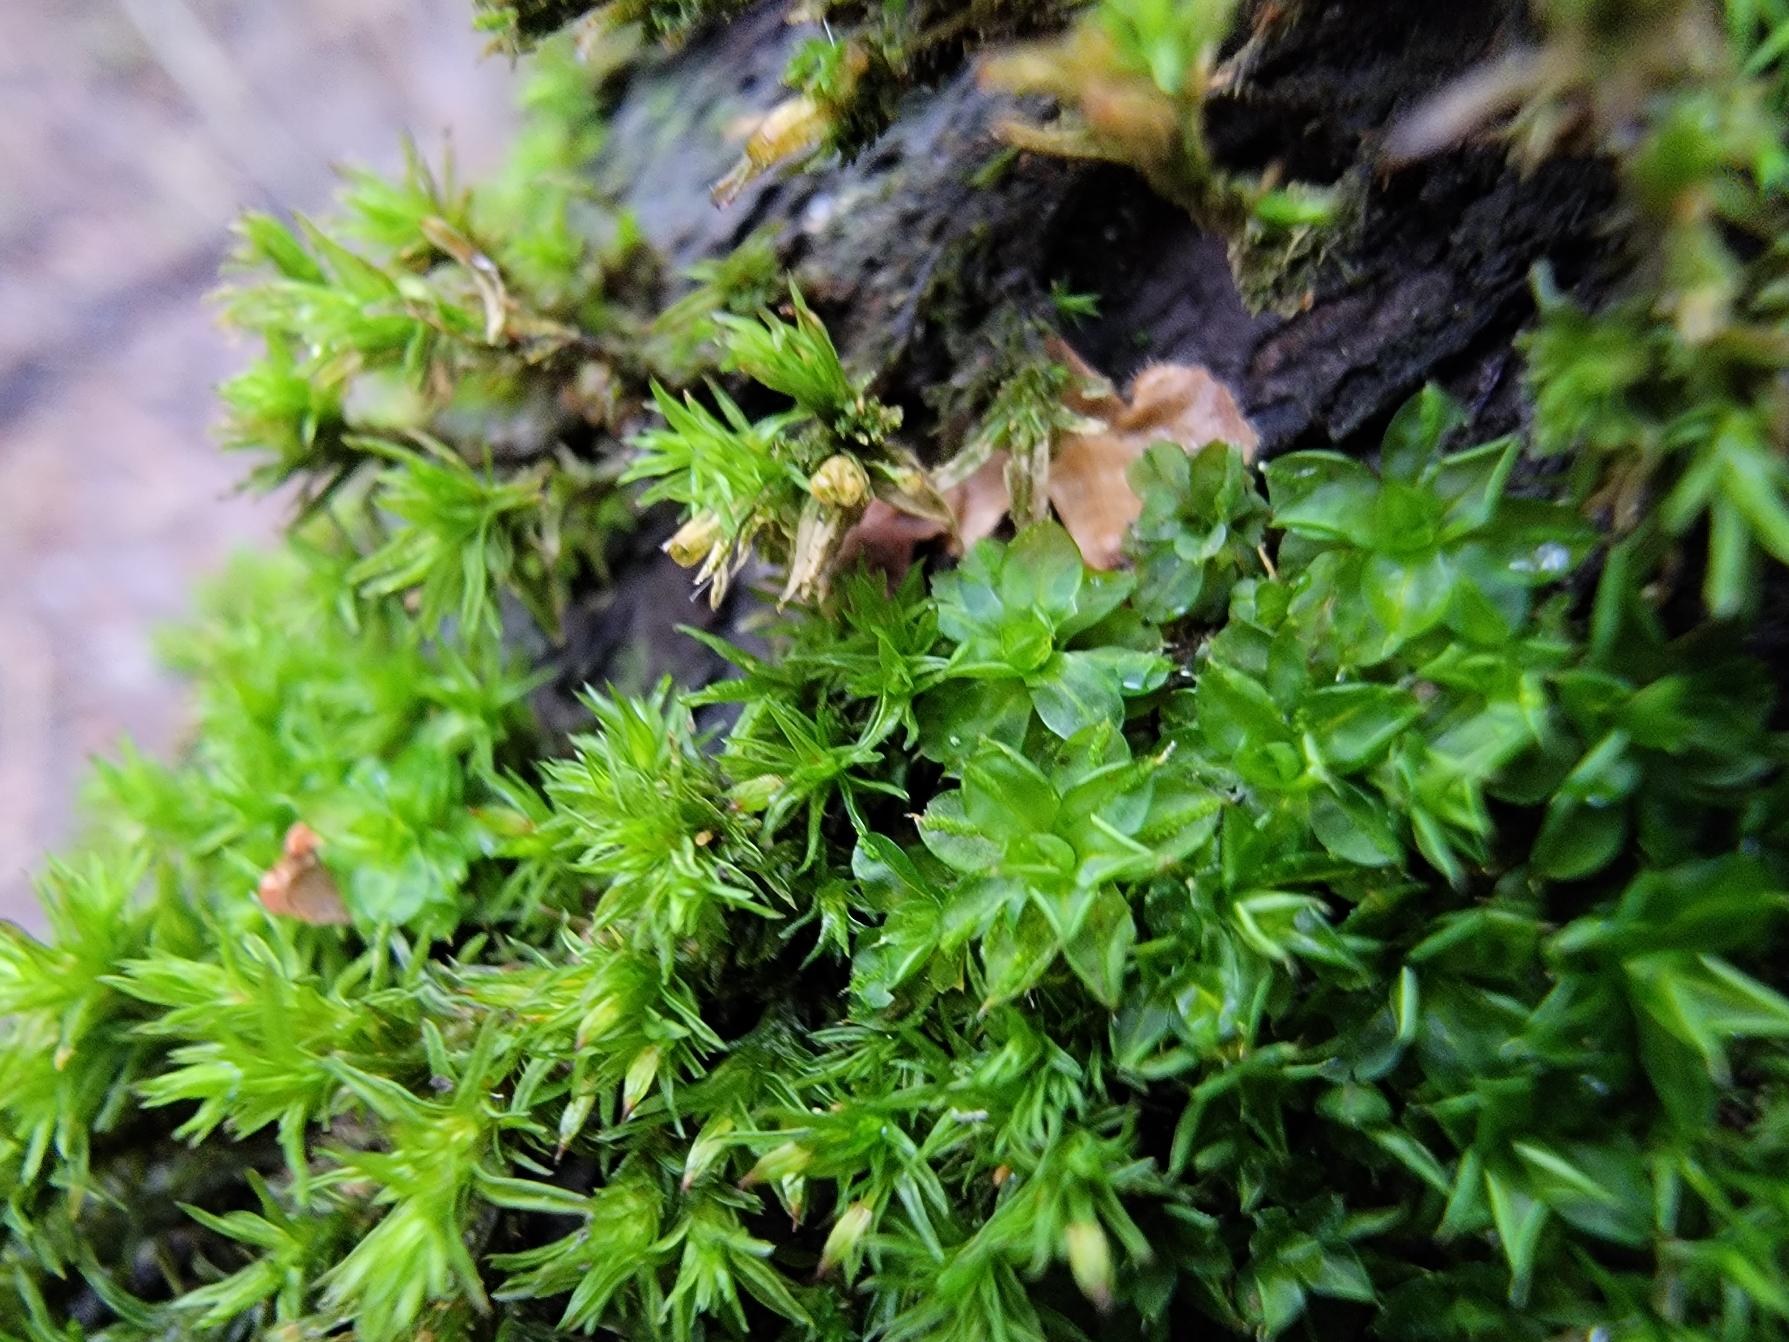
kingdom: Plantae
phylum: Bryophyta
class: Bryopsida
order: Pottiales
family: Pottiaceae
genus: Syntrichia
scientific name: Syntrichia papillosa
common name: Bark-hårstjerne
